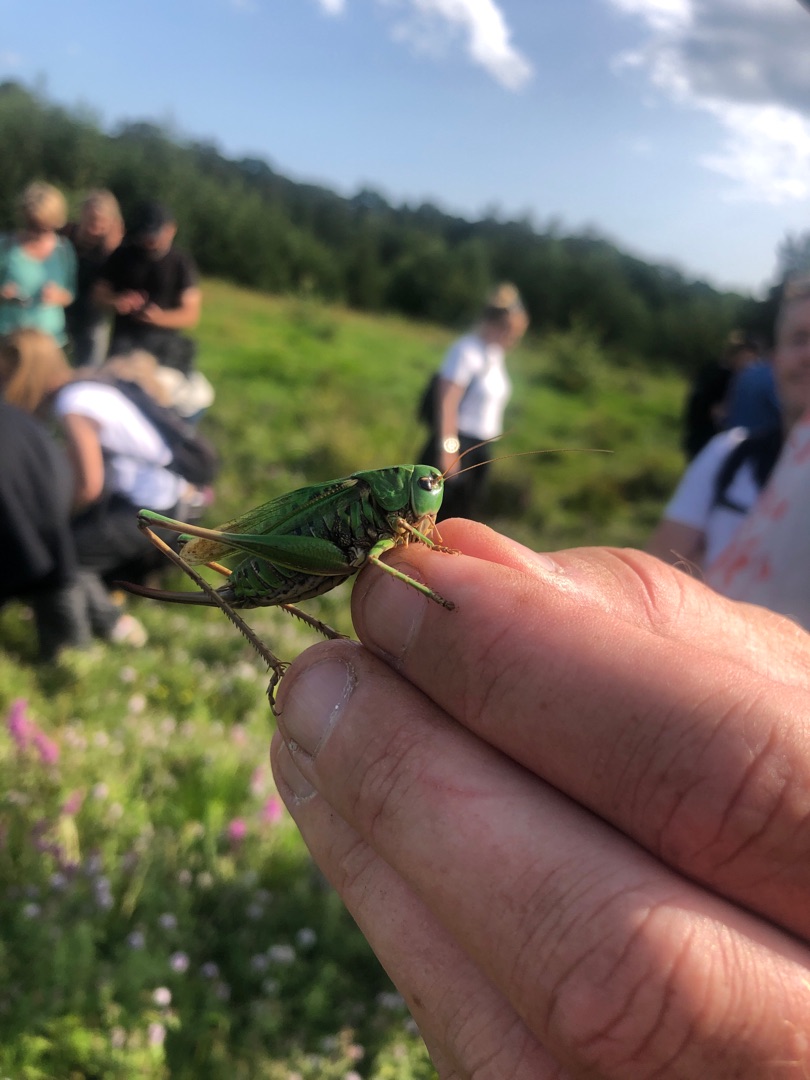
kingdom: Animalia
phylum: Arthropoda
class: Insecta
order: Orthoptera
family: Tettigoniidae
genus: Decticus
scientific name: Decticus verrucivorus
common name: Vortebider
